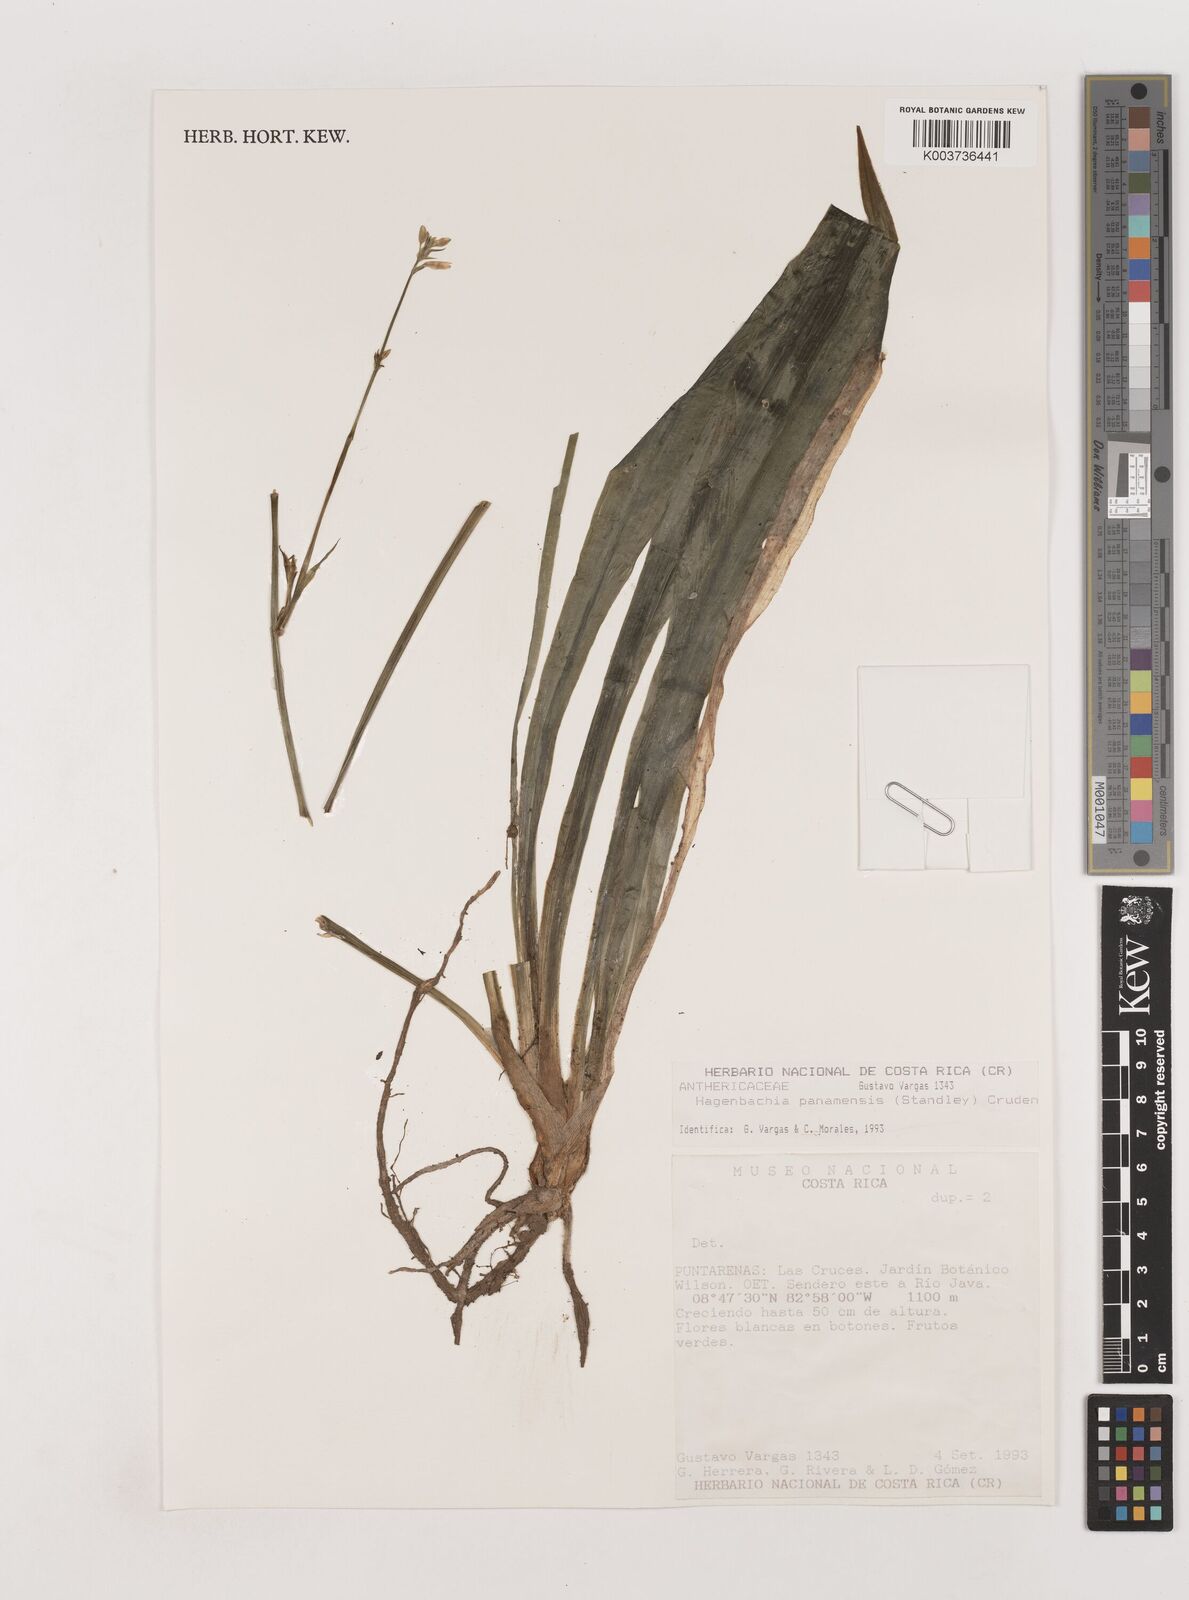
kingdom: Plantae
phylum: Tracheophyta
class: Liliopsida
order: Asparagales
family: Asparagaceae
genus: Hagenbachia
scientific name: Hagenbachia panamensis
